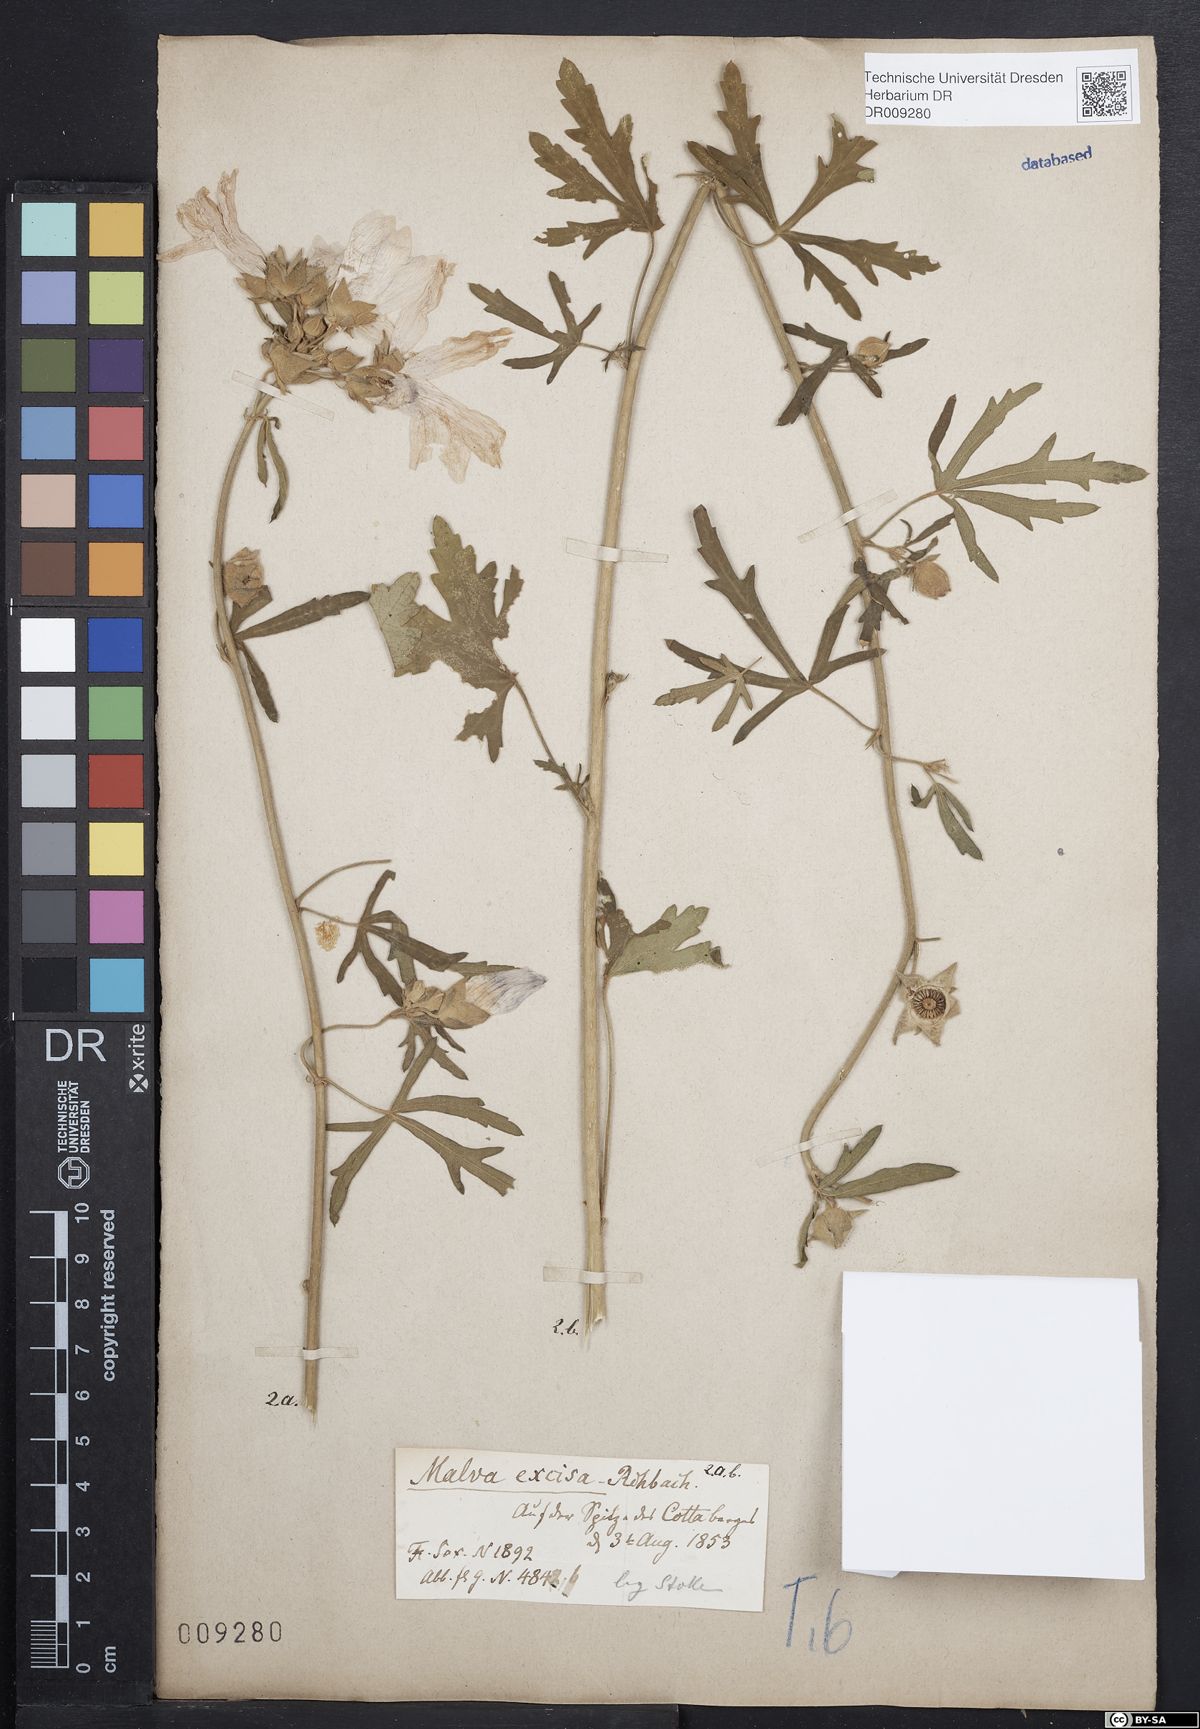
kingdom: Plantae
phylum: Tracheophyta
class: Magnoliopsida
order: Malvales
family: Malvaceae
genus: Malva
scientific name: Malva alcea
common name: Greater musk-mallow
